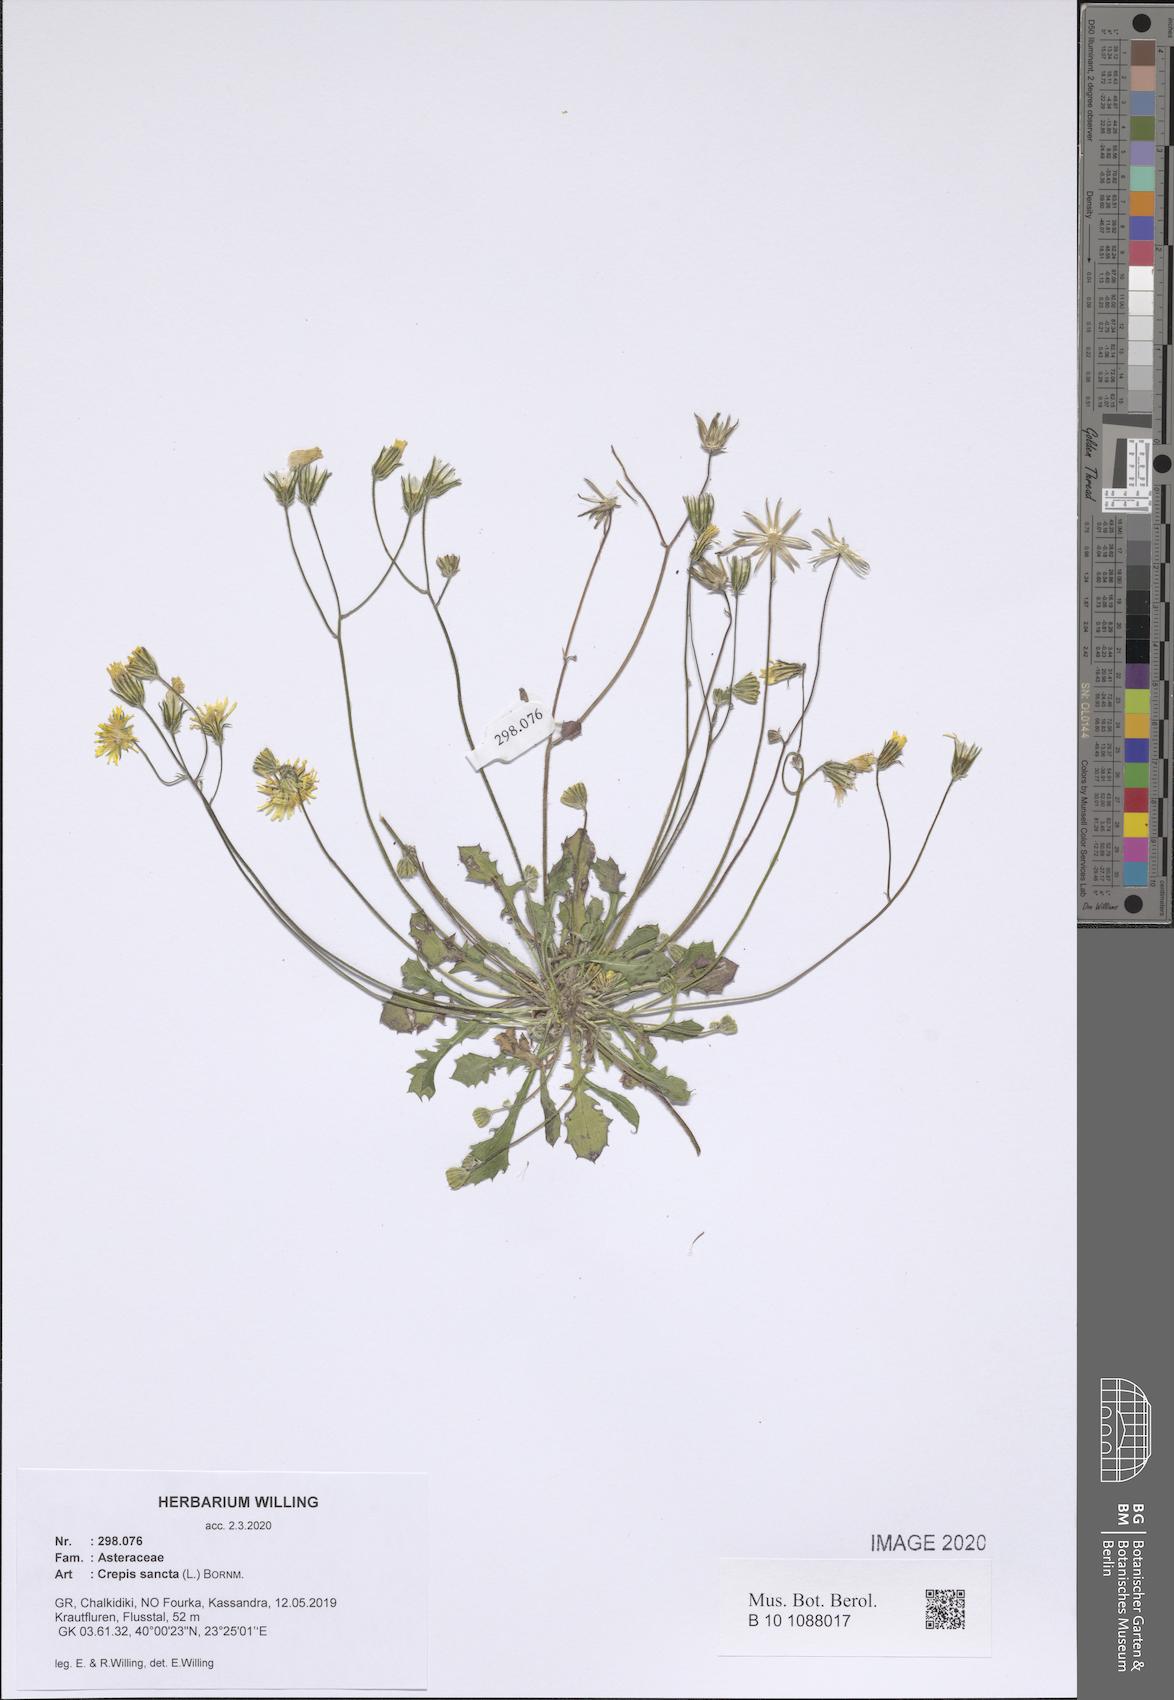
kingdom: Plantae
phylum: Tracheophyta
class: Magnoliopsida
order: Asterales
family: Asteraceae
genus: Crepis
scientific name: Crepis sancta
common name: Hawk's-beard
